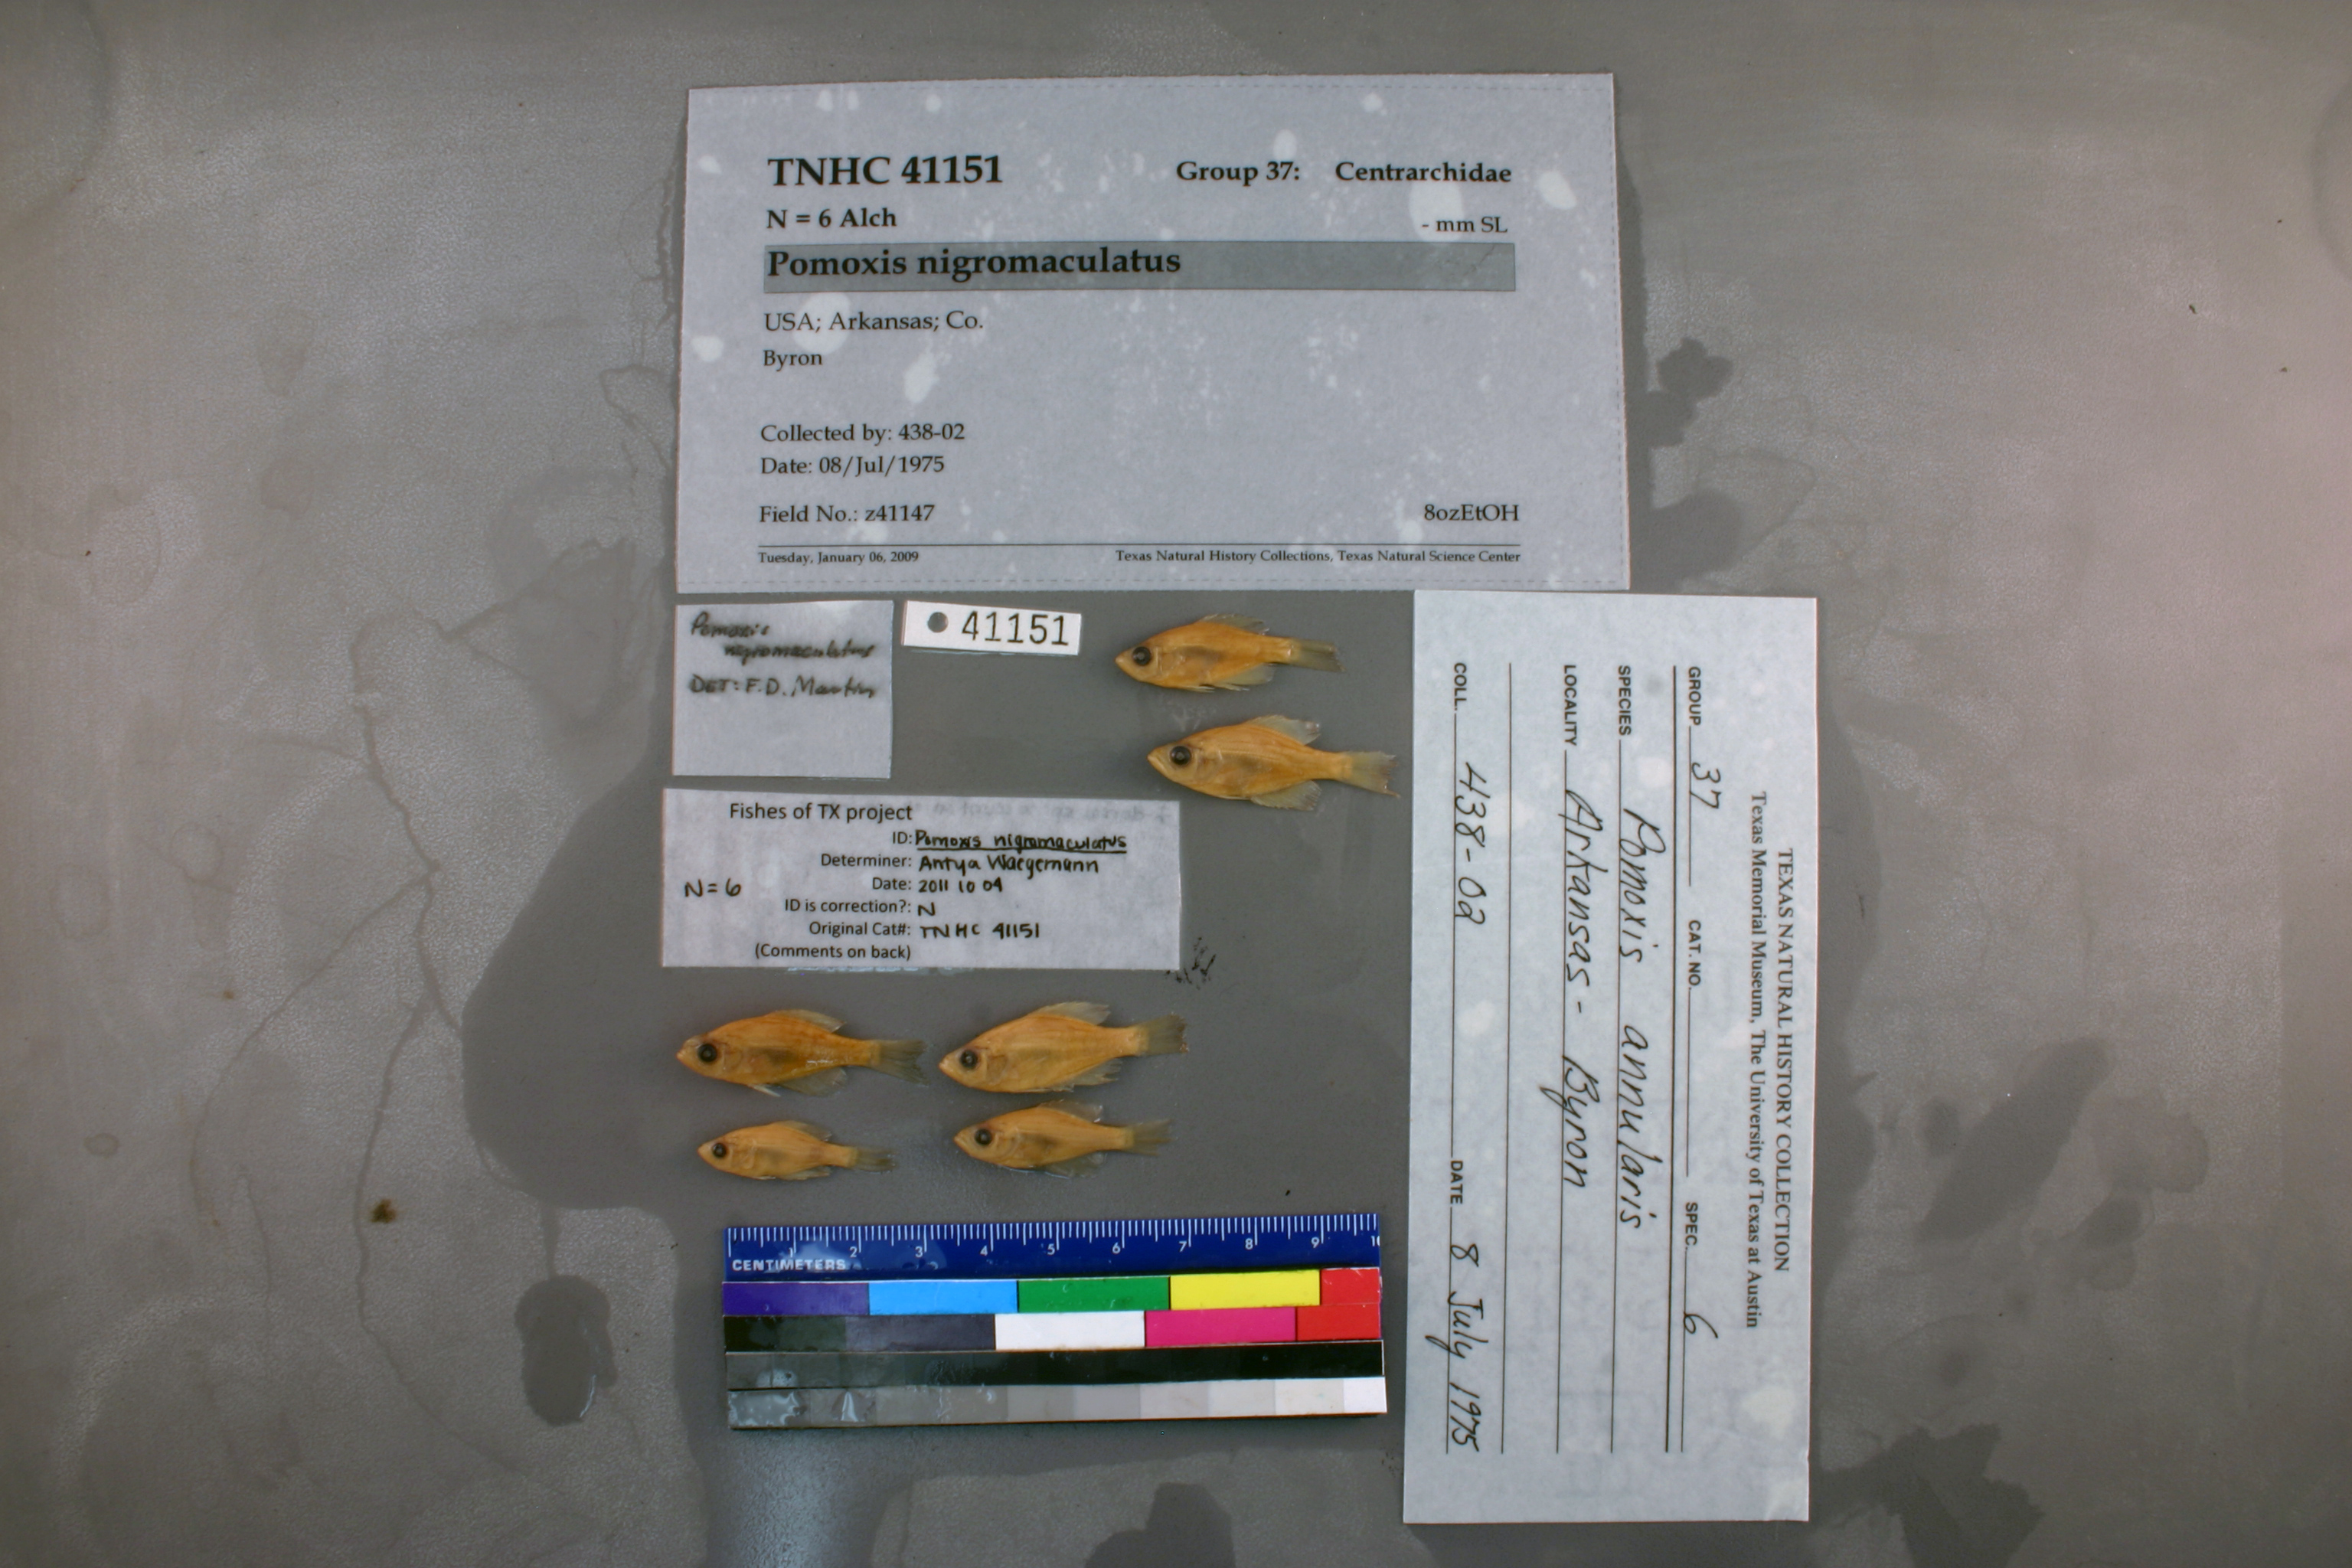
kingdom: Animalia
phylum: Chordata
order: Perciformes
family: Centrarchidae
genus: Pomoxis
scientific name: Pomoxis nigromaculatus
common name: Black crappie
